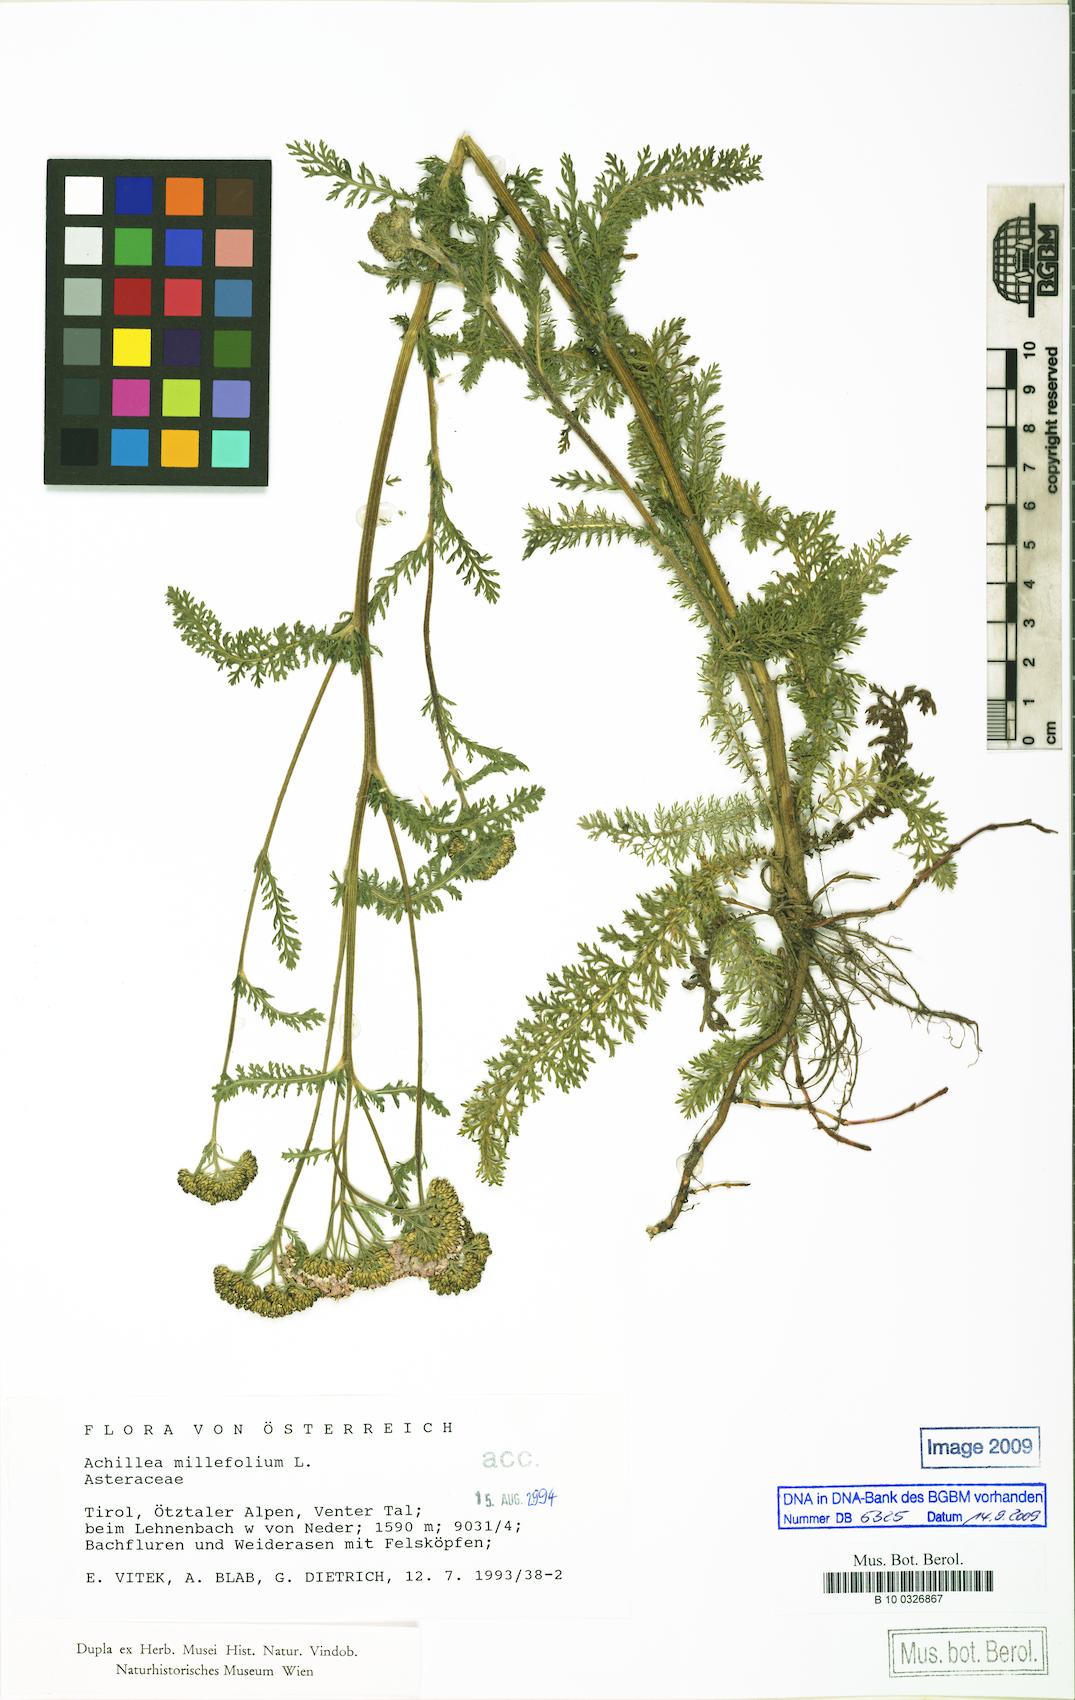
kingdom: Plantae
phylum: Tracheophyta
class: Magnoliopsida
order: Asterales
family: Asteraceae
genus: Achillea
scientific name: Achillea millefolium
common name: Yarrow
